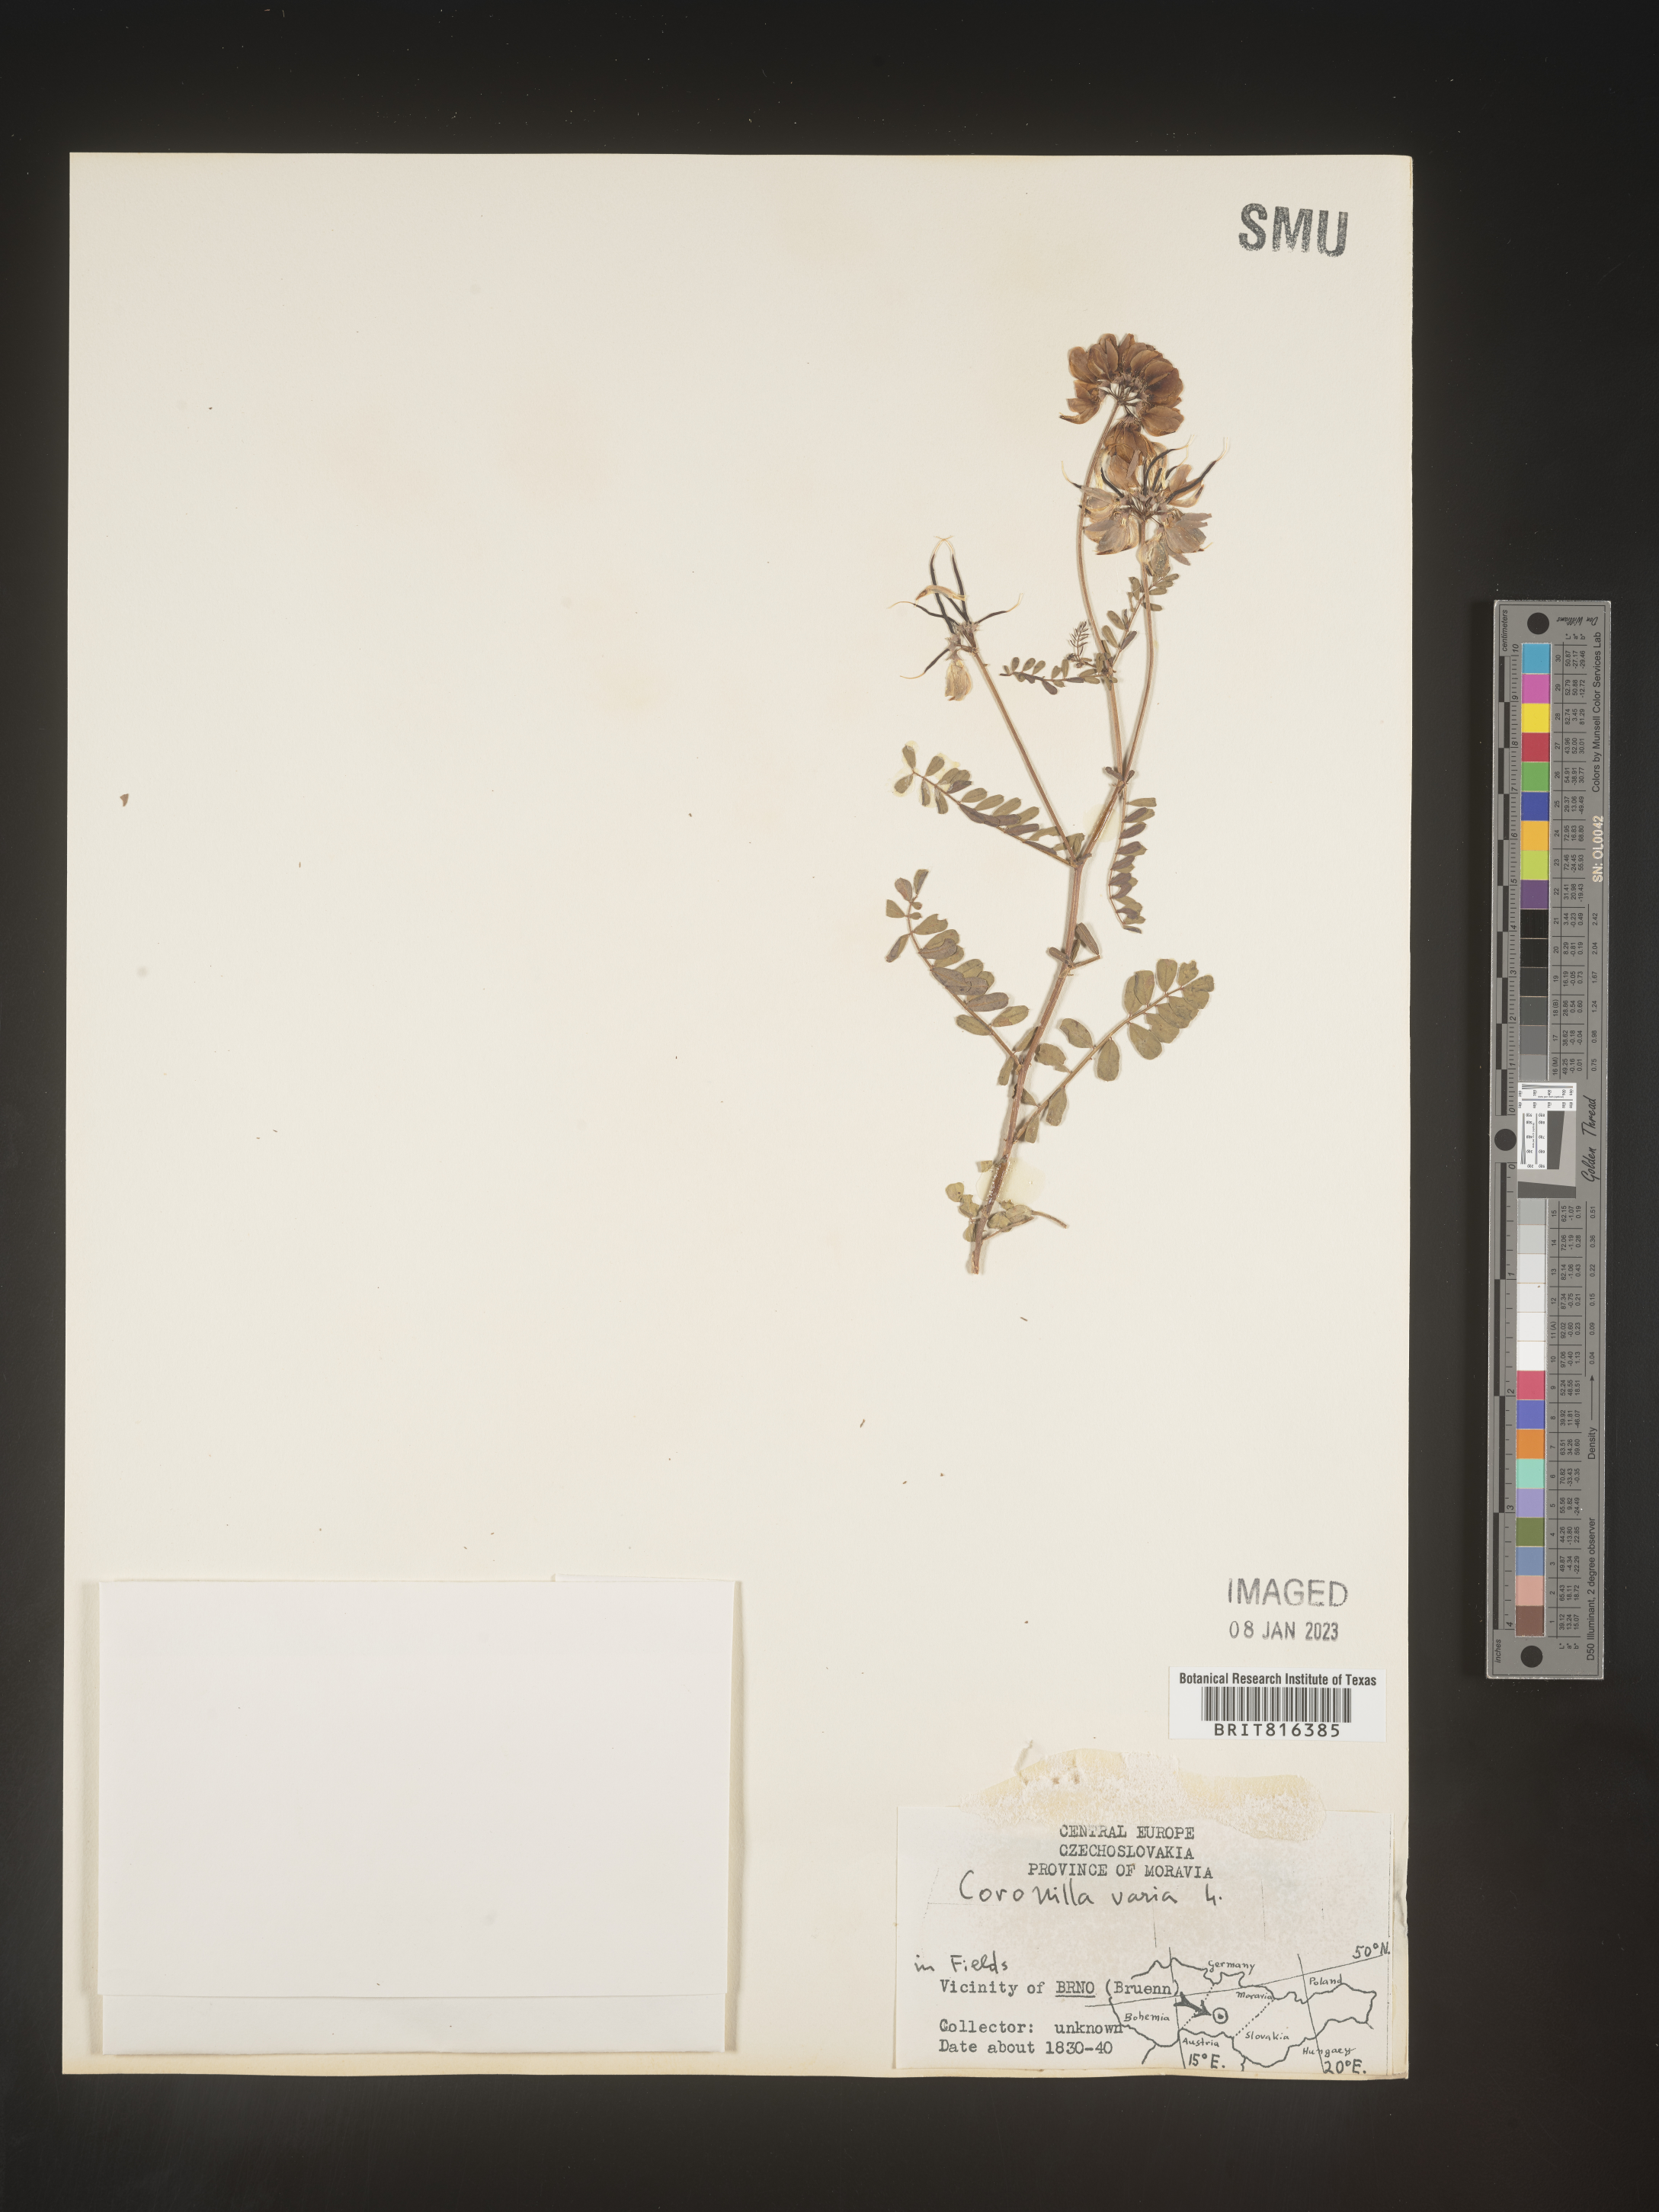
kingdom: Plantae
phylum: Tracheophyta
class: Magnoliopsida
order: Fabales
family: Fabaceae
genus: Coronilla
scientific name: Coronilla
